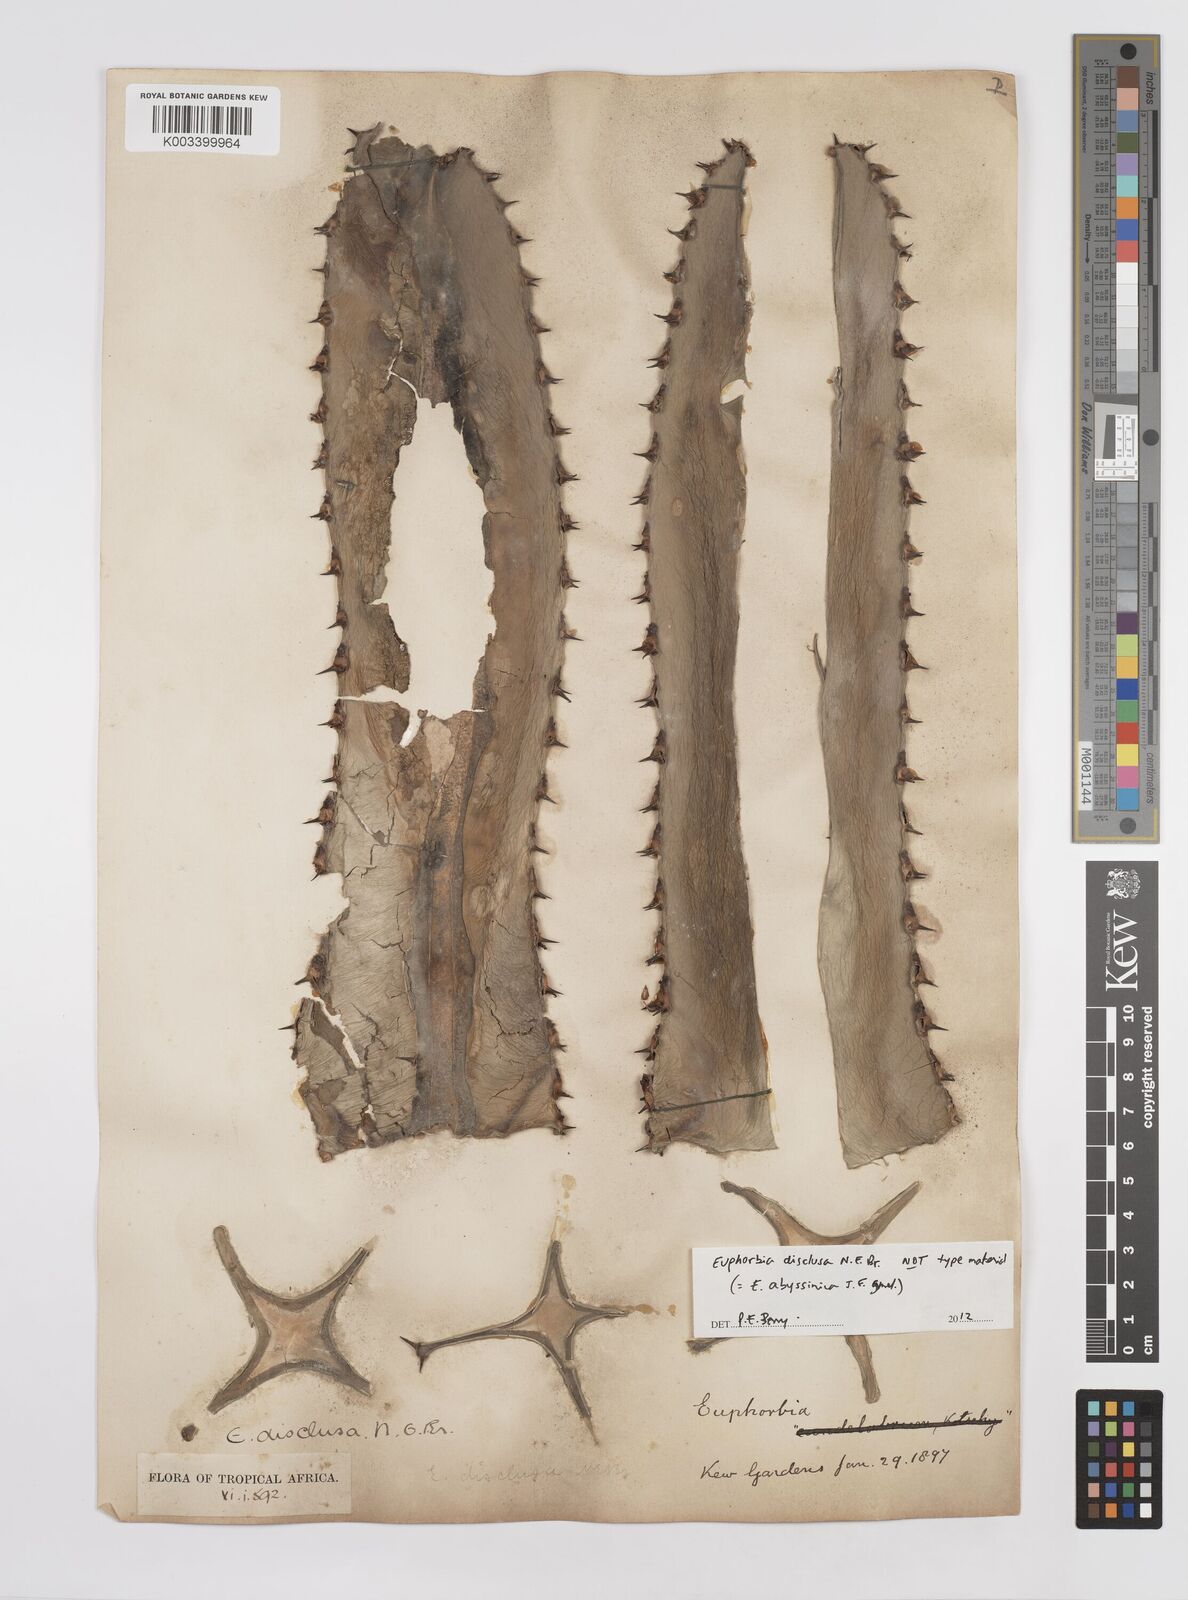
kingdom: Plantae
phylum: Tracheophyta
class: Magnoliopsida
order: Malpighiales
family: Euphorbiaceae
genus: Euphorbia
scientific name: Euphorbia abyssinica
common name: Abyssinian spurge
